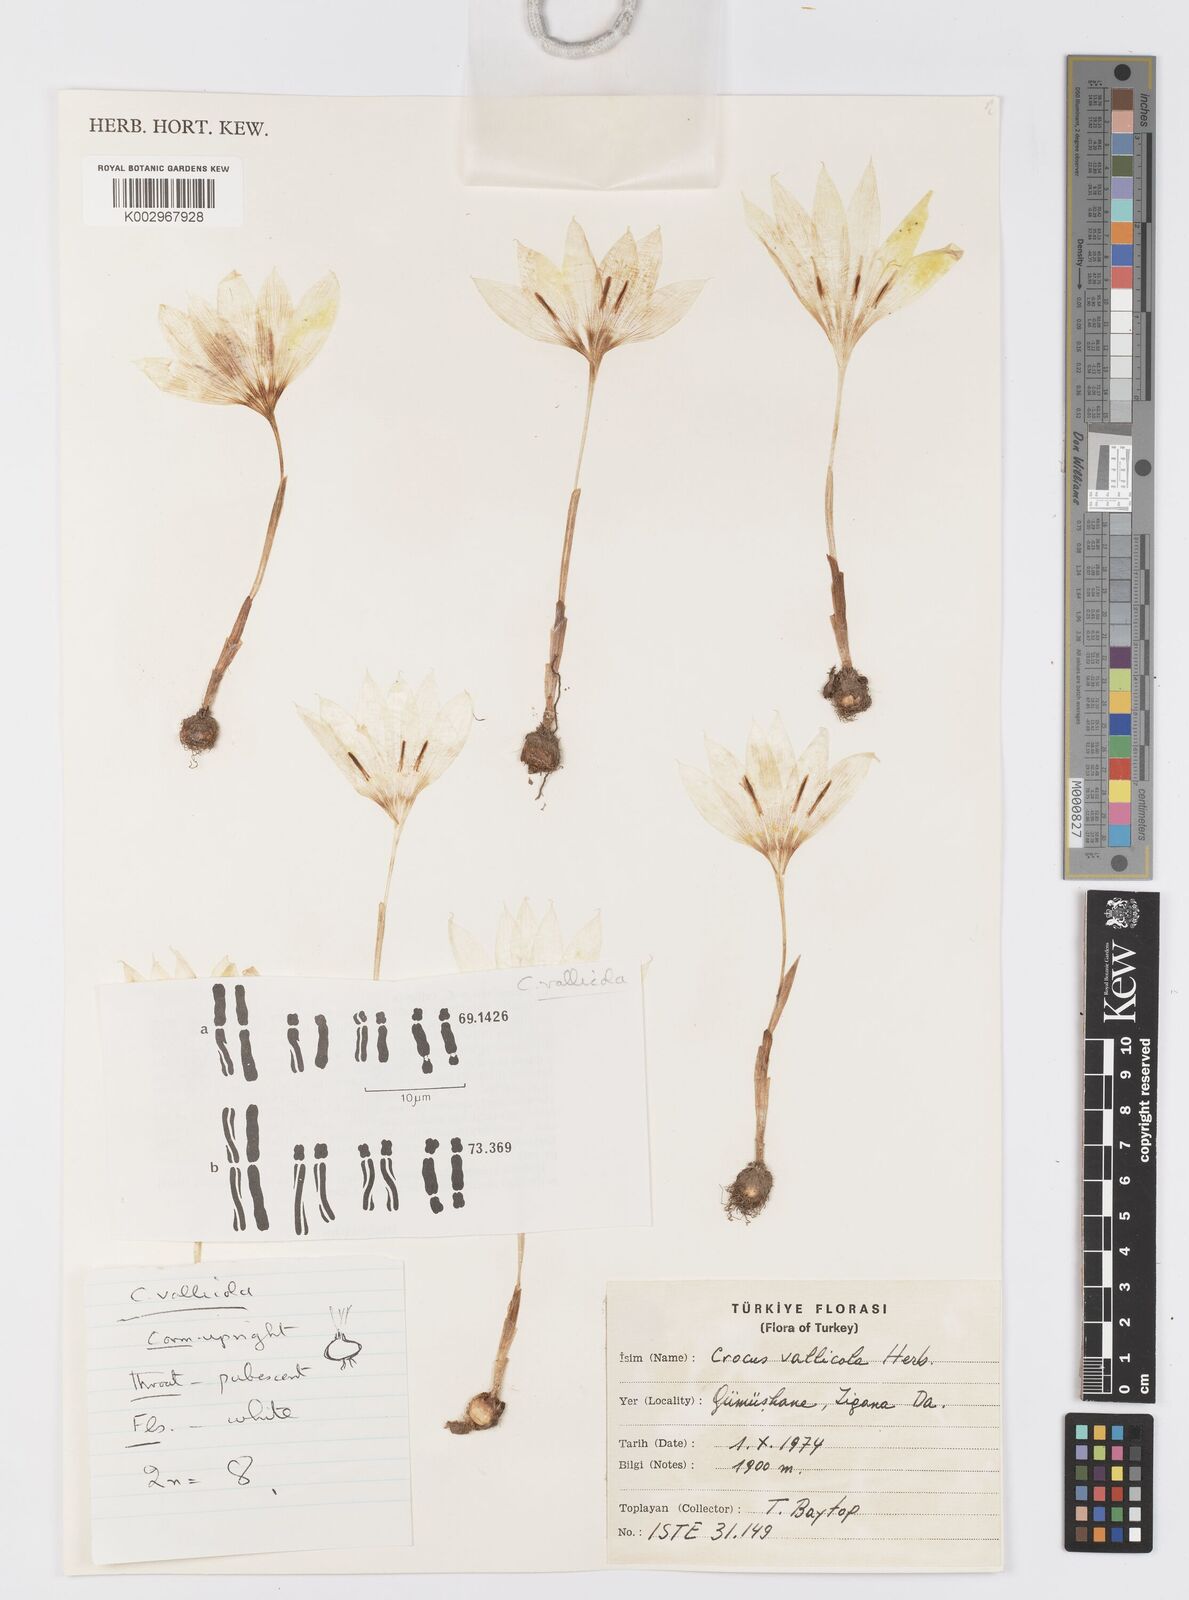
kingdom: Plantae
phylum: Tracheophyta
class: Liliopsida
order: Asparagales
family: Iridaceae
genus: Crocus
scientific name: Crocus vallicola
